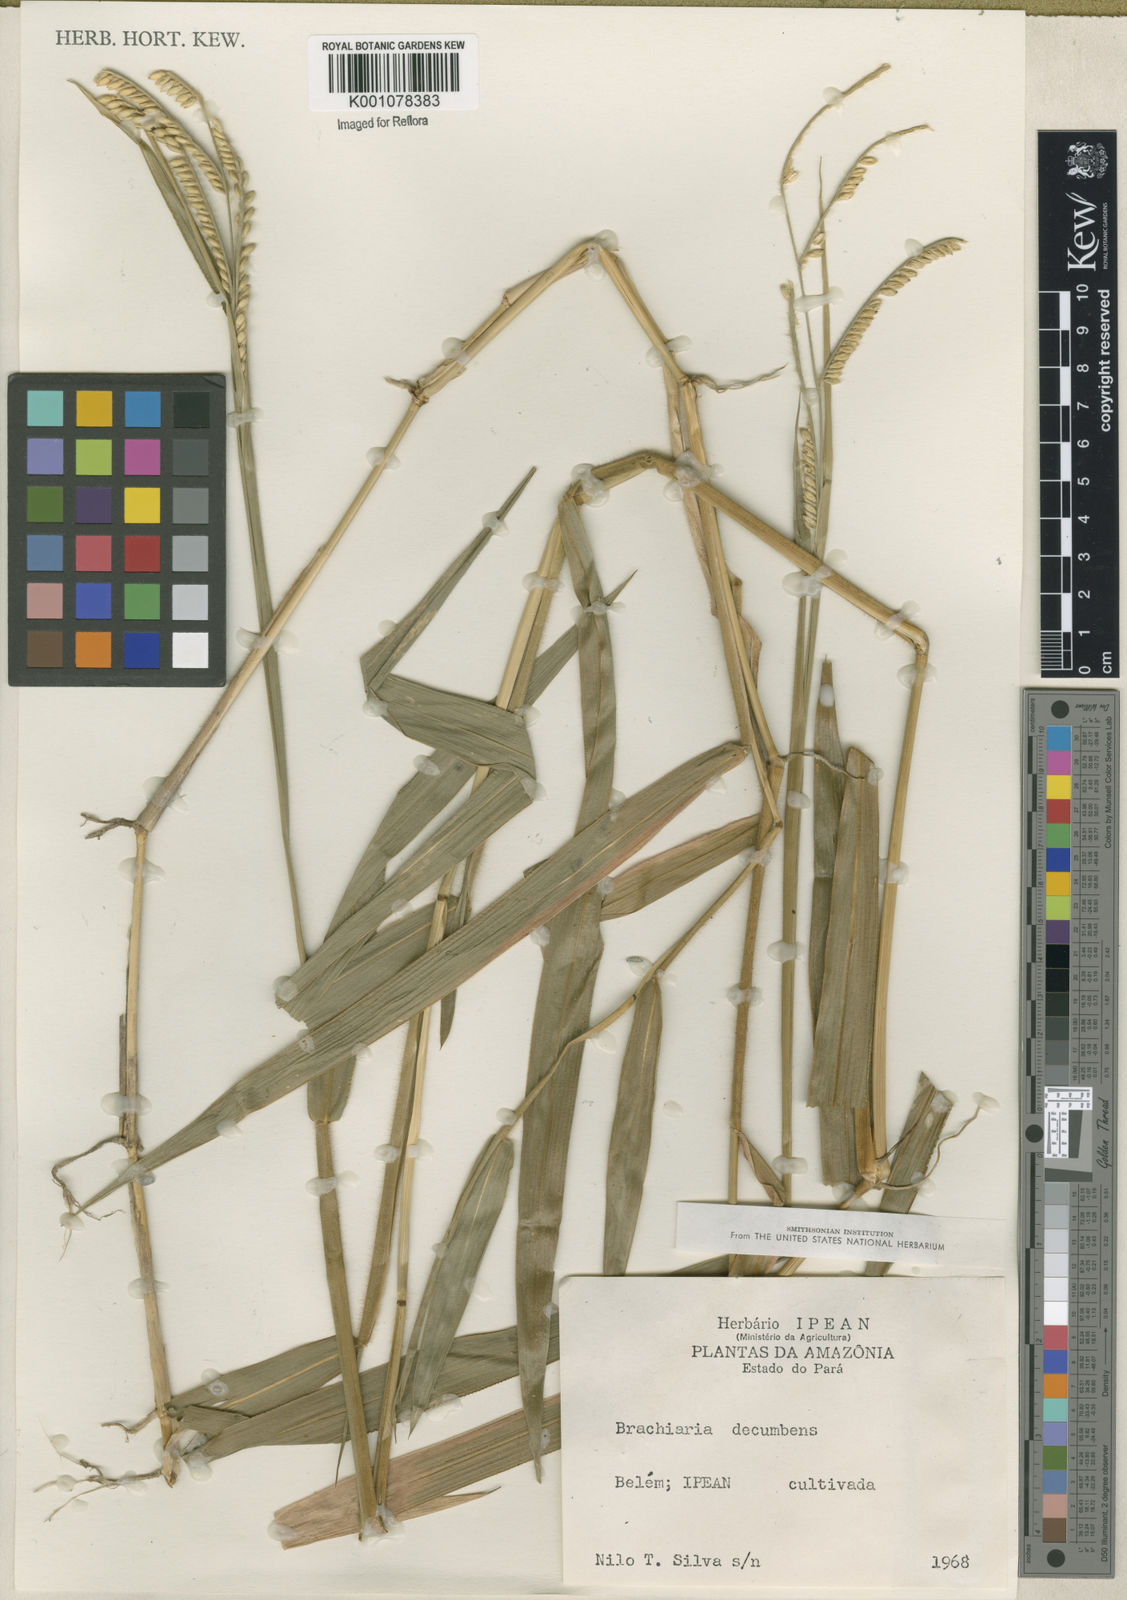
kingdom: Plantae
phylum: Tracheophyta
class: Liliopsida
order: Poales
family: Poaceae
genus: Urochloa
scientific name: Urochloa brizantha
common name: Palisade signalgrass
